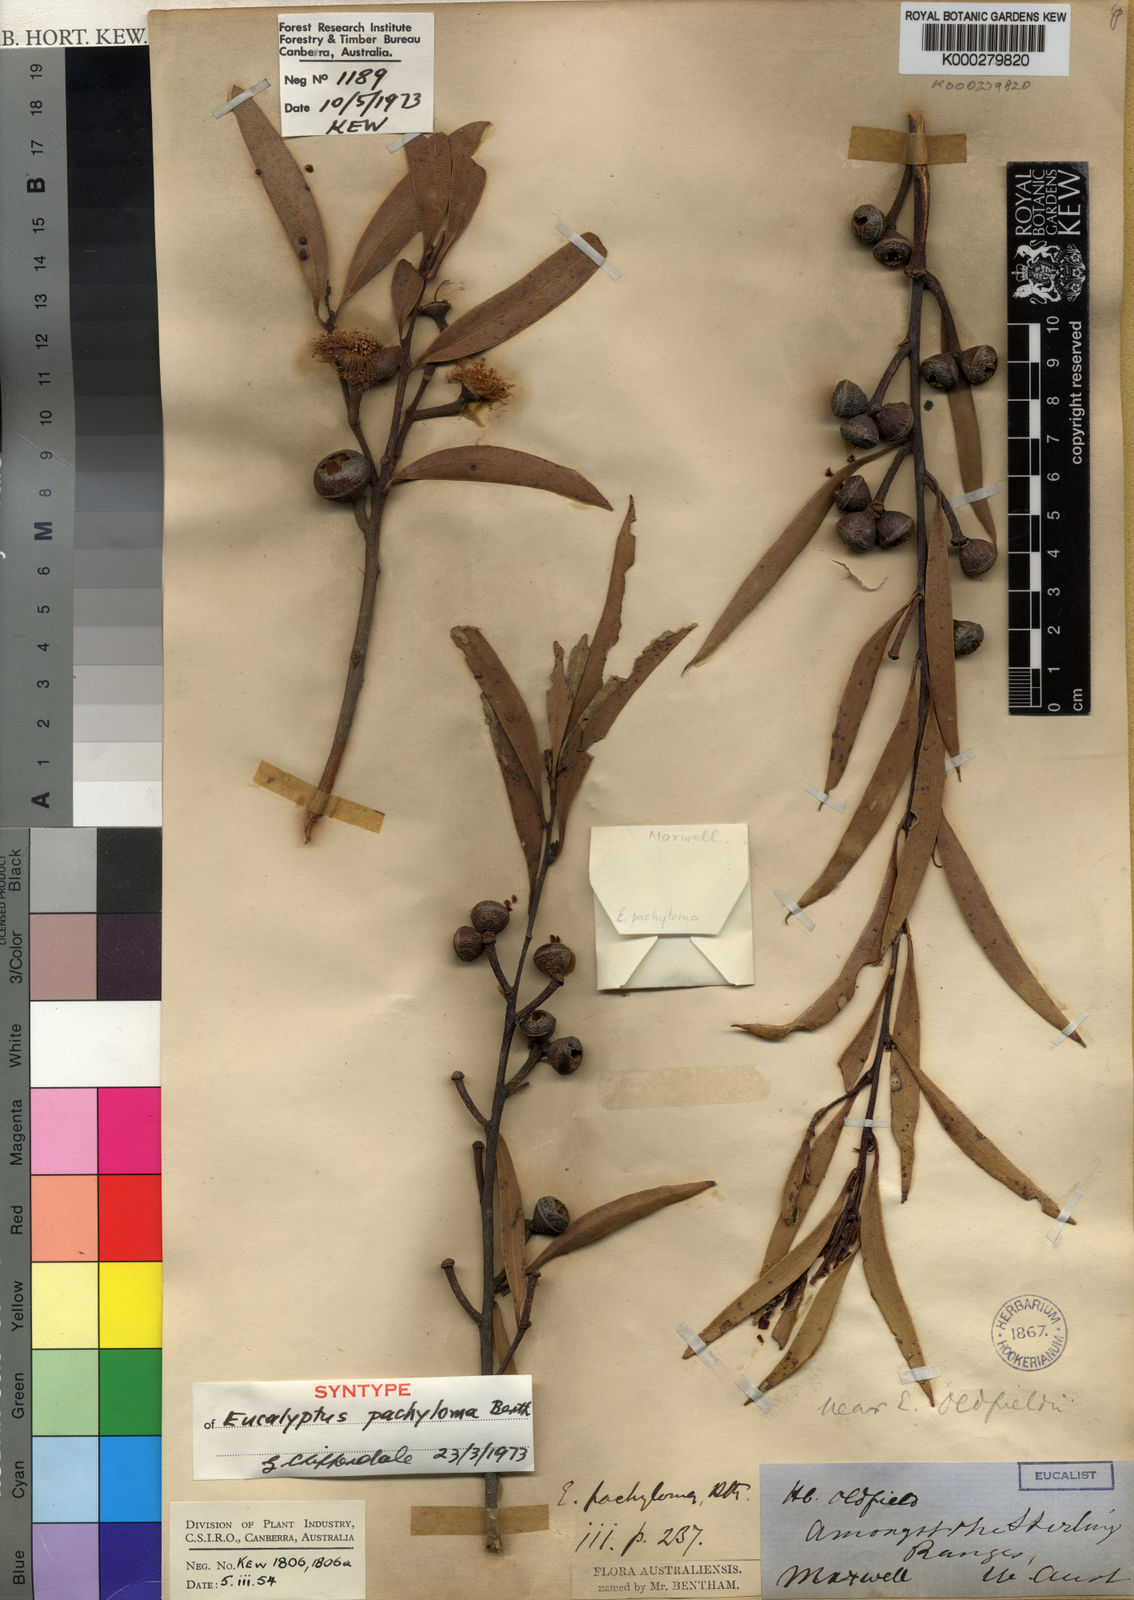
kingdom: Plantae
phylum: Tracheophyta
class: Magnoliopsida
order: Myrtales
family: Myrtaceae
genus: Eucalyptus
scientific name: Eucalyptus pachyloma
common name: Kalgan plains mallee
